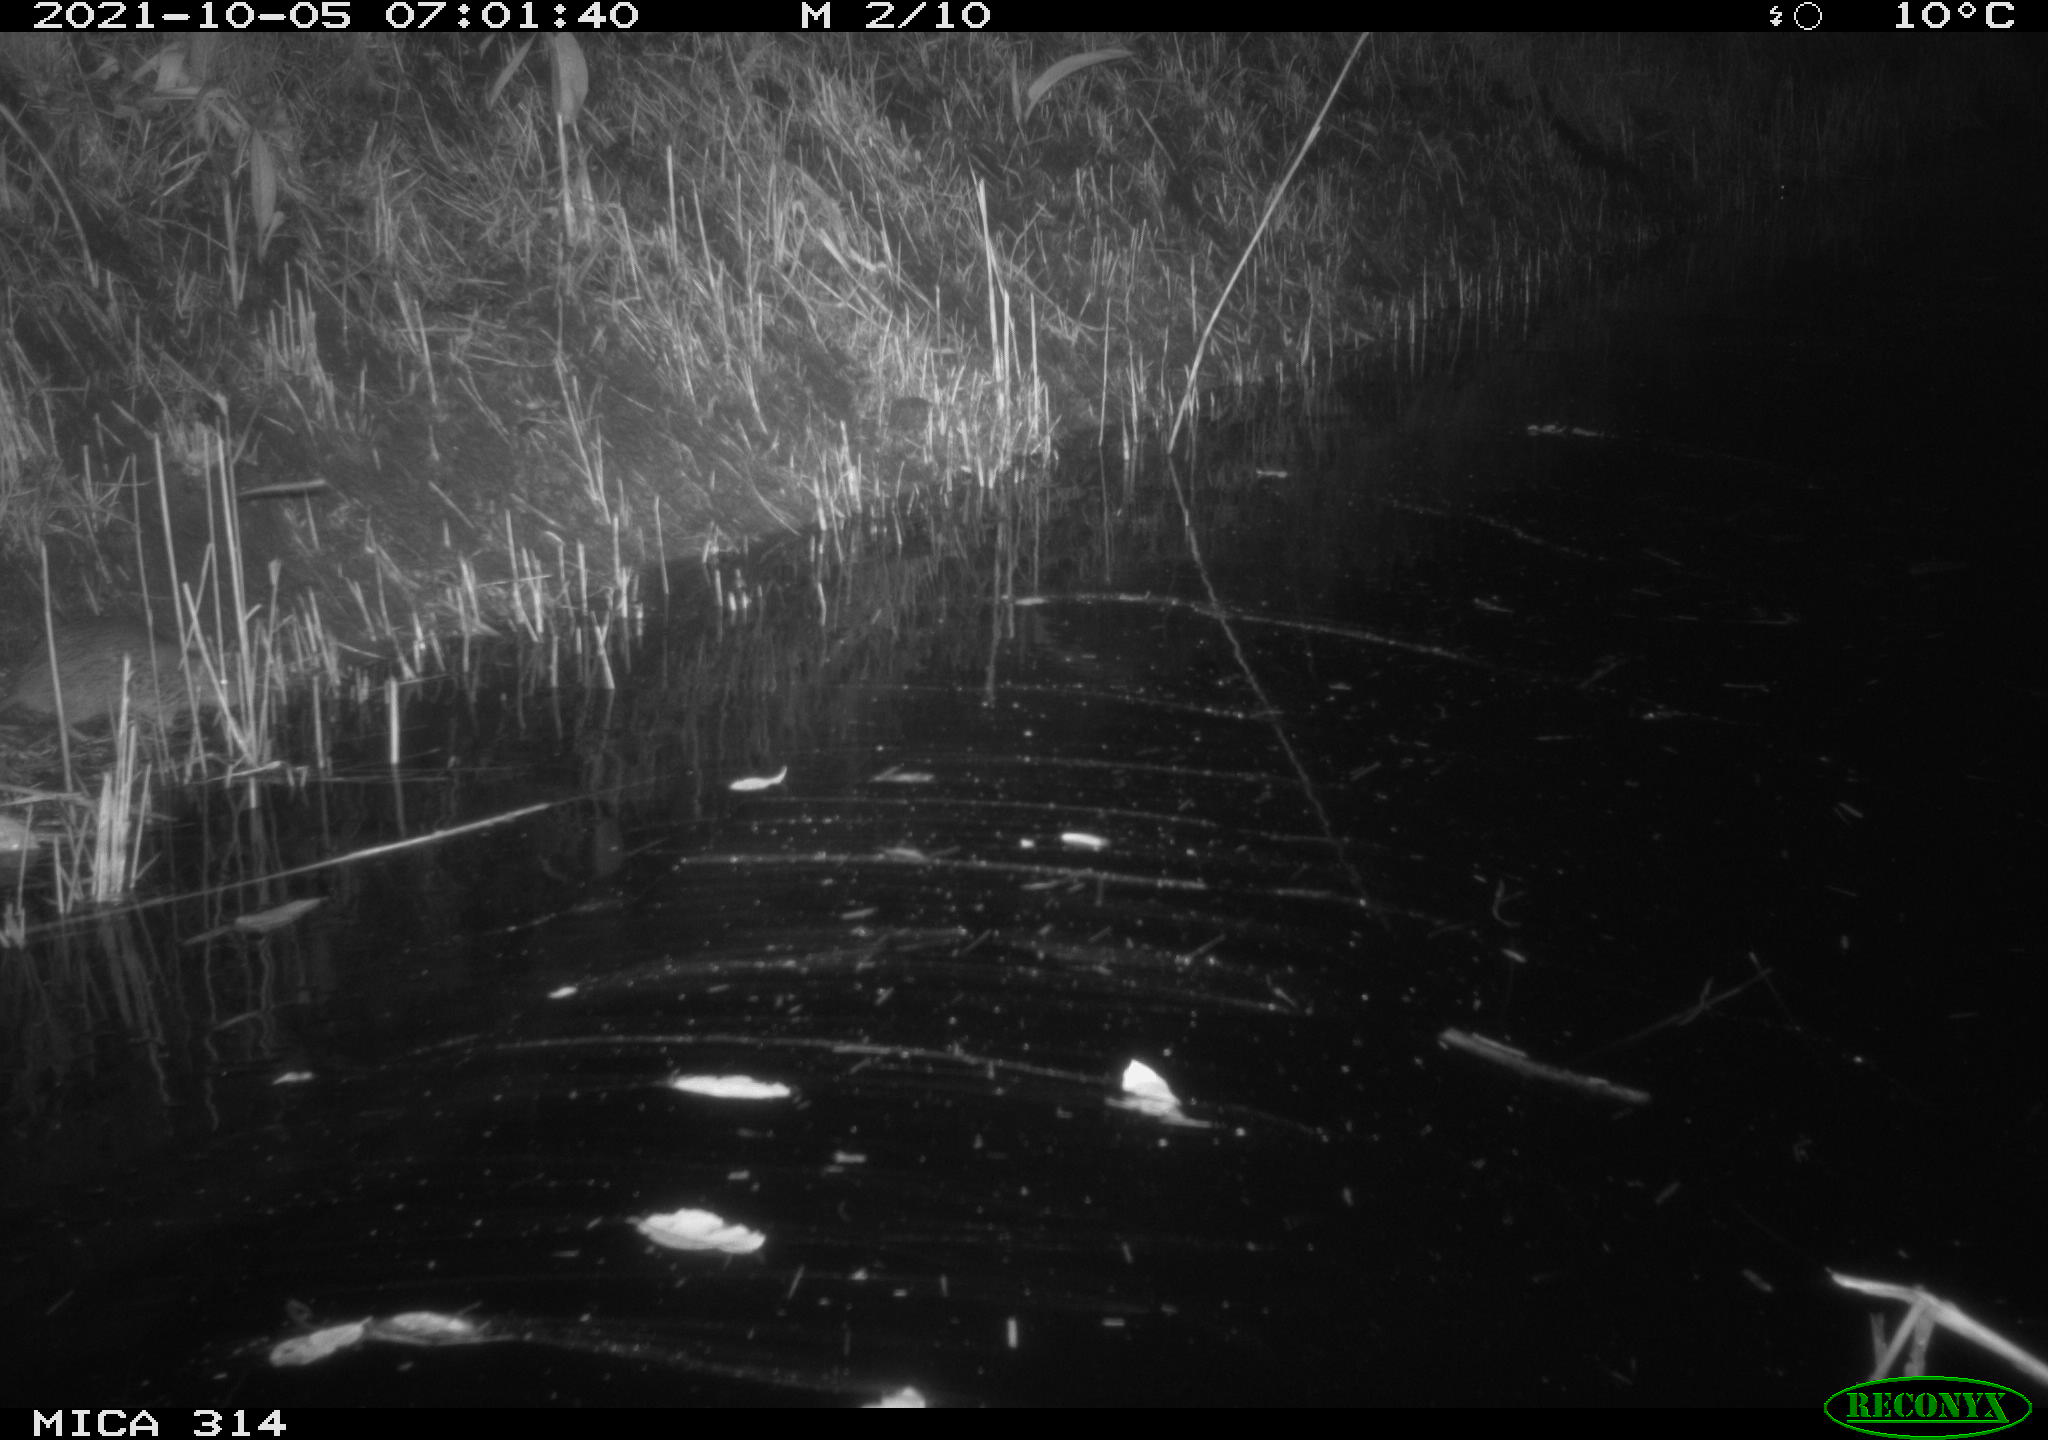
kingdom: Animalia
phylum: Chordata
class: Mammalia
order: Rodentia
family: Muridae
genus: Rattus
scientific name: Rattus norvegicus
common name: Brown rat
